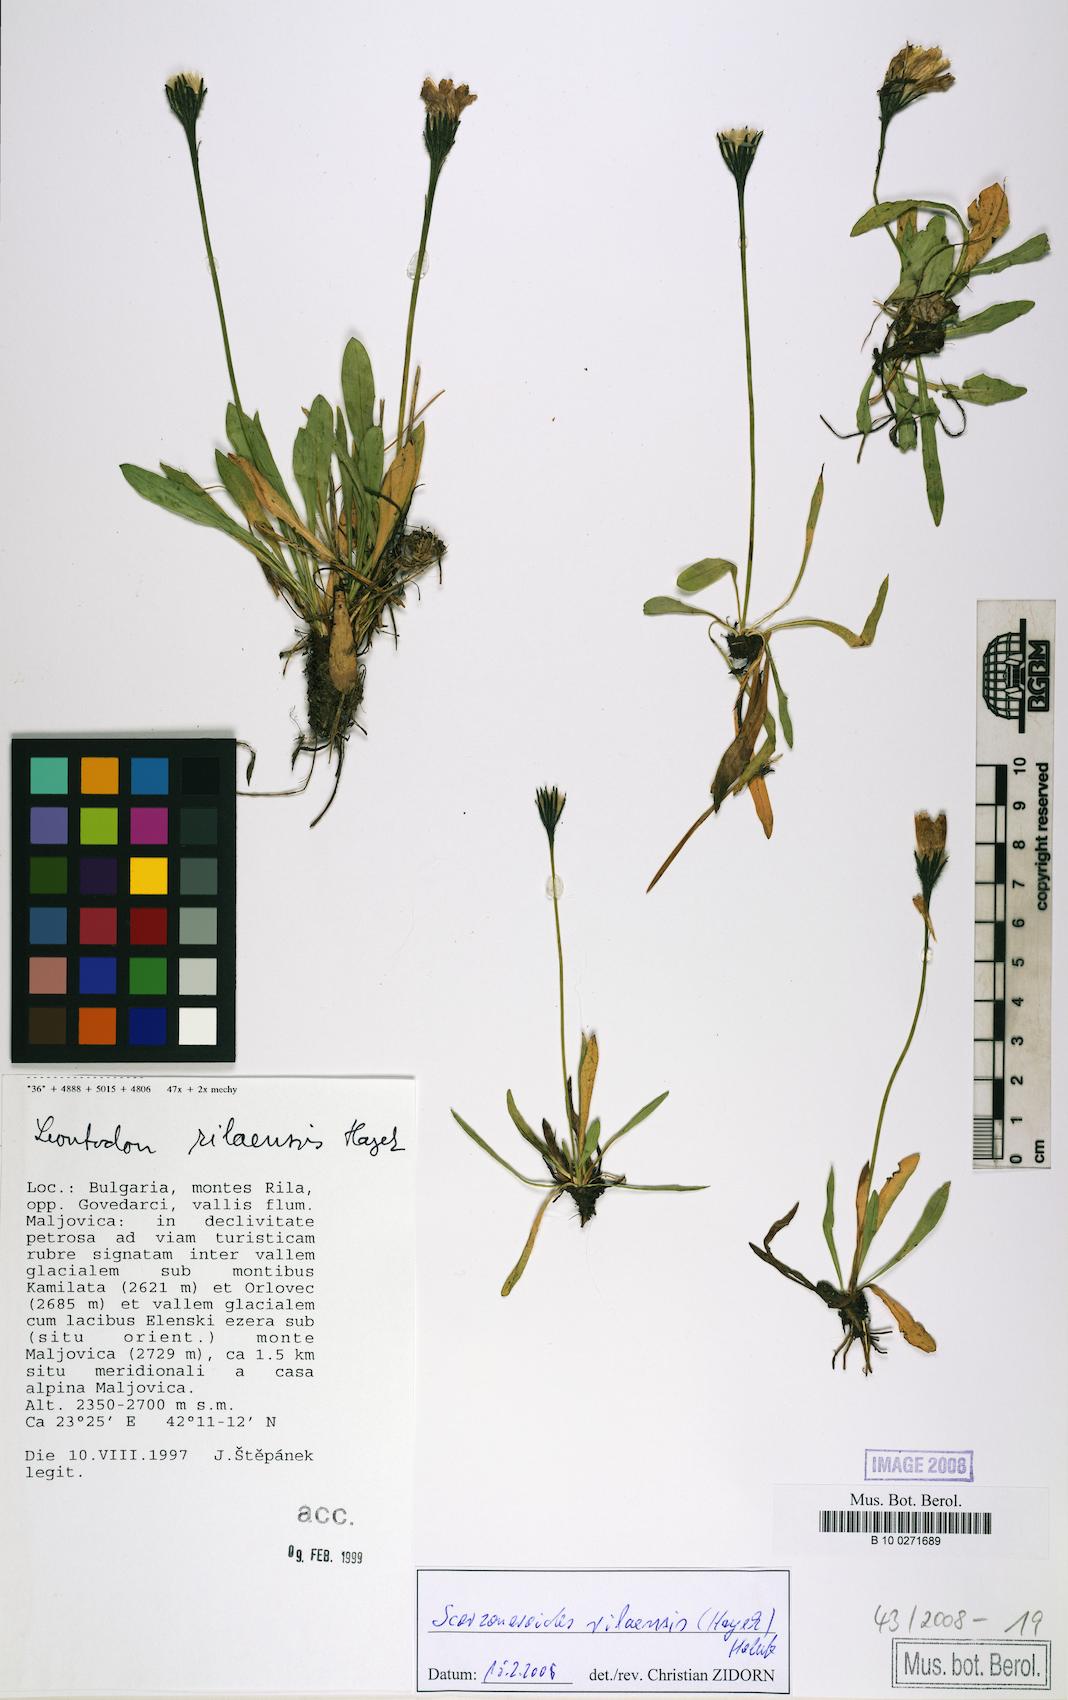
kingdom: Plantae
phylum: Tracheophyta
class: Magnoliopsida
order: Asterales
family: Asteraceae
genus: Scorzoneroides
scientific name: Scorzoneroides rilaensis
